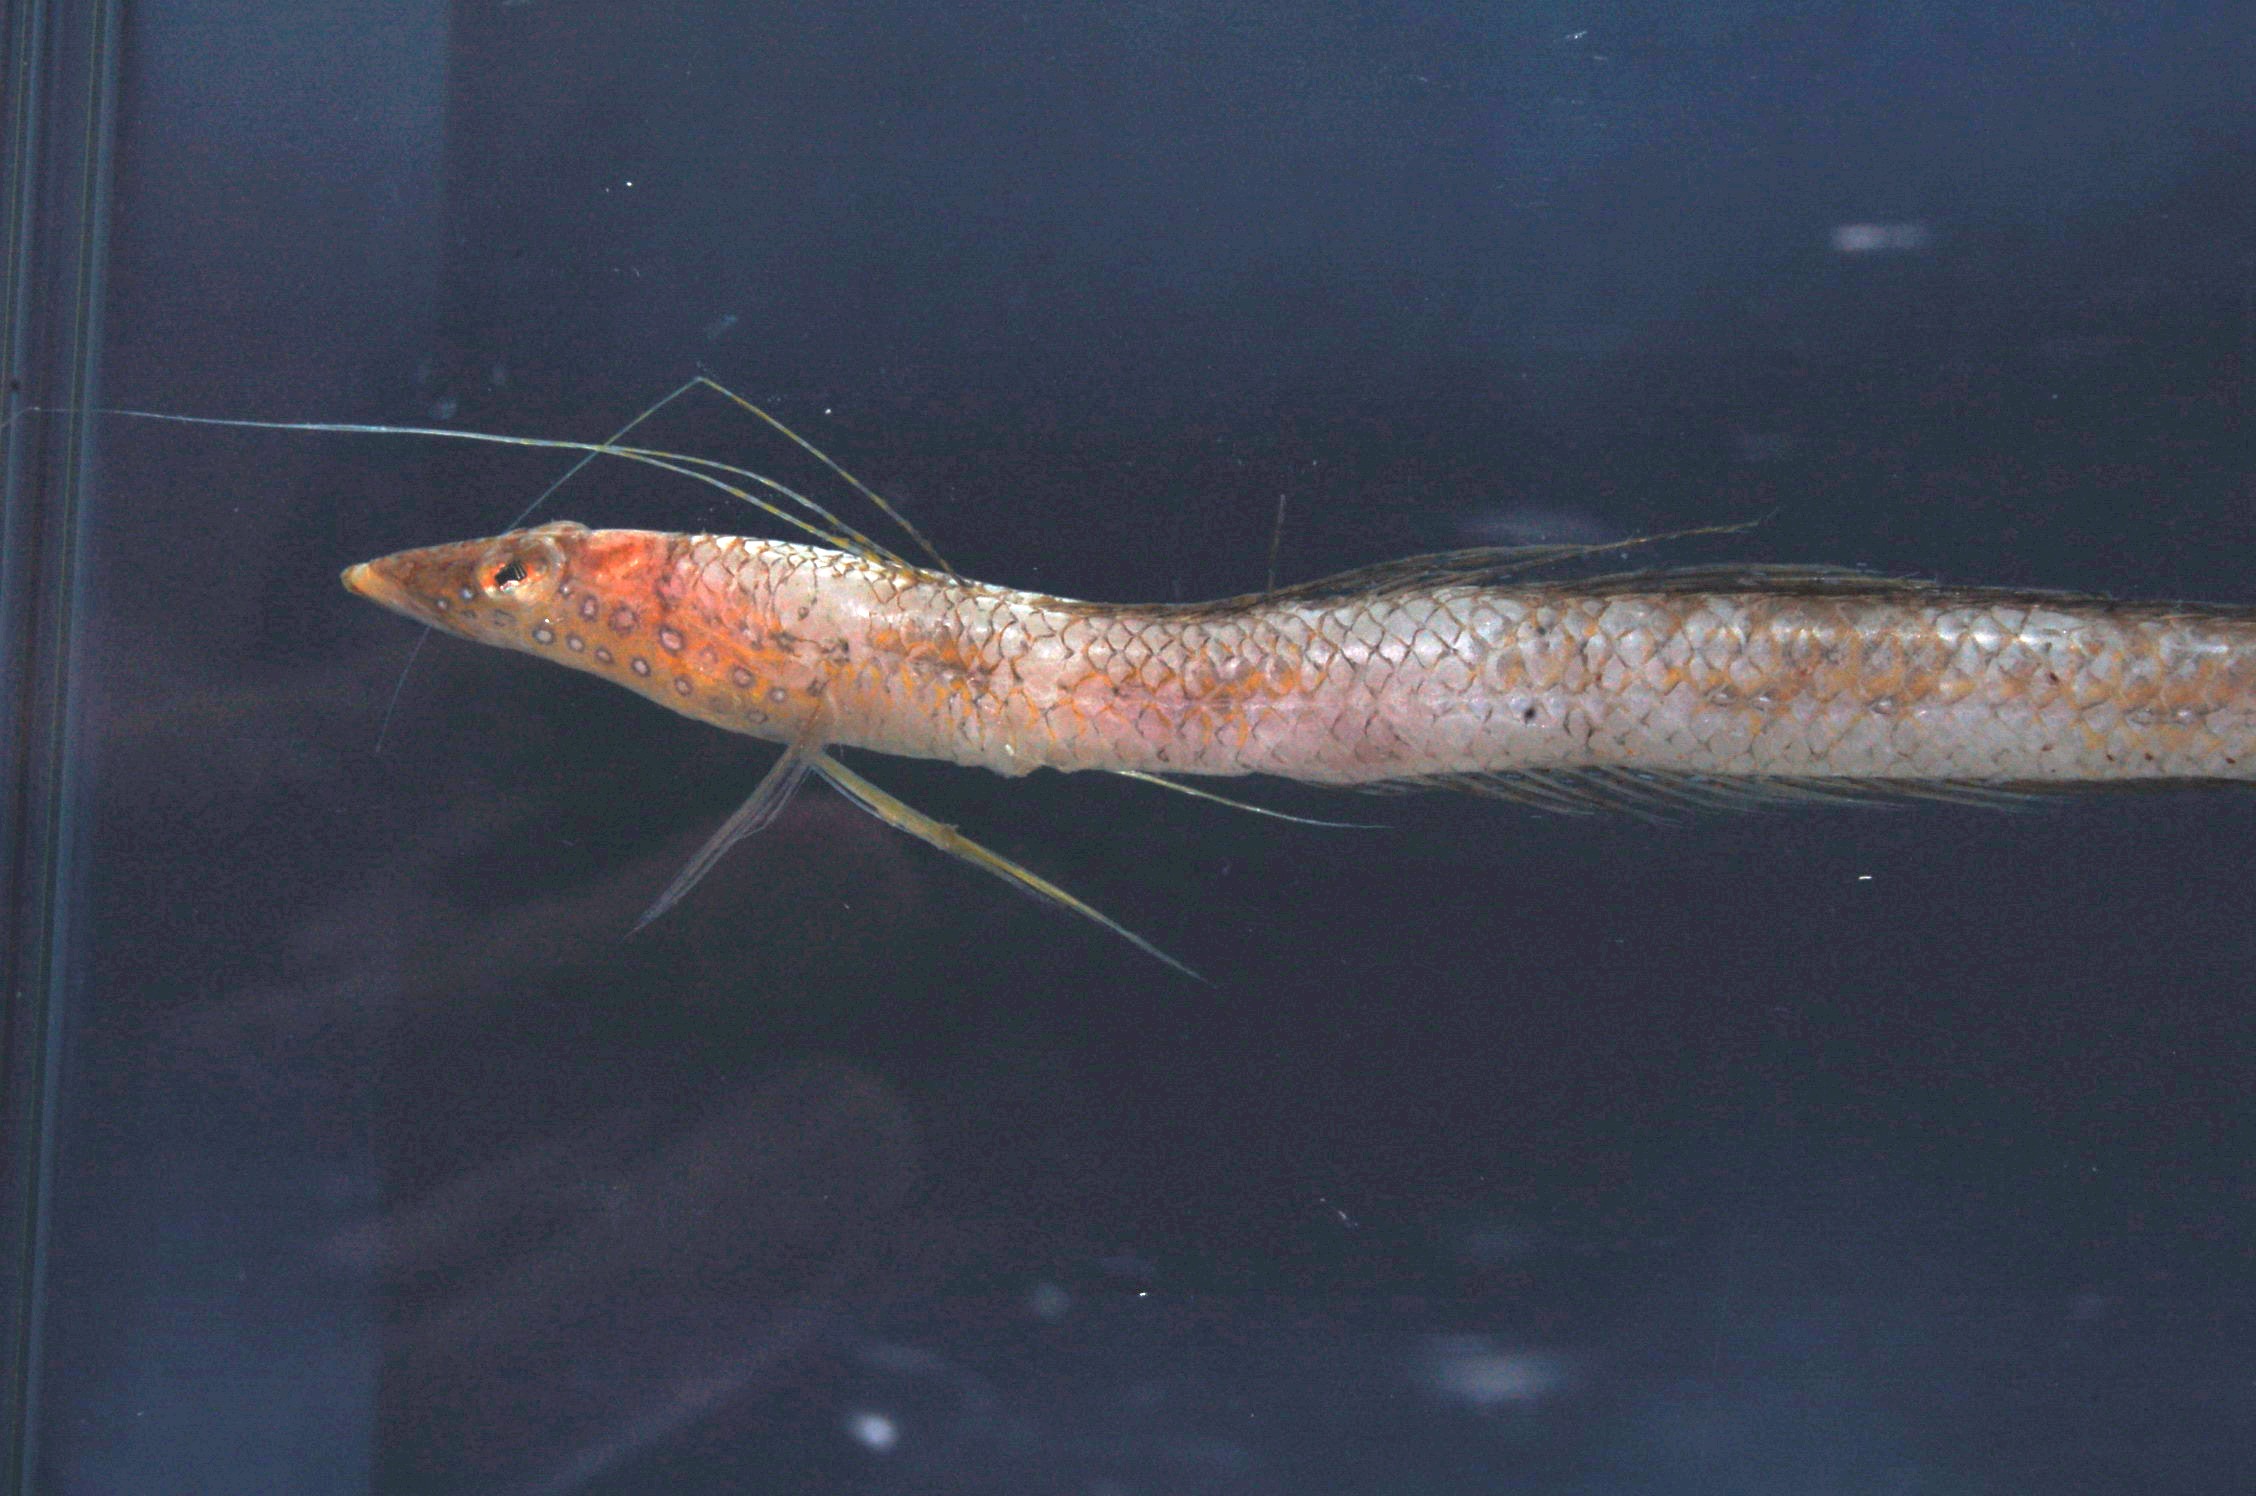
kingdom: Animalia
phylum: Chordata
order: Perciformes
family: Trichonotidae
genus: Trichonotus
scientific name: Trichonotus marleyi
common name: Sand diver
